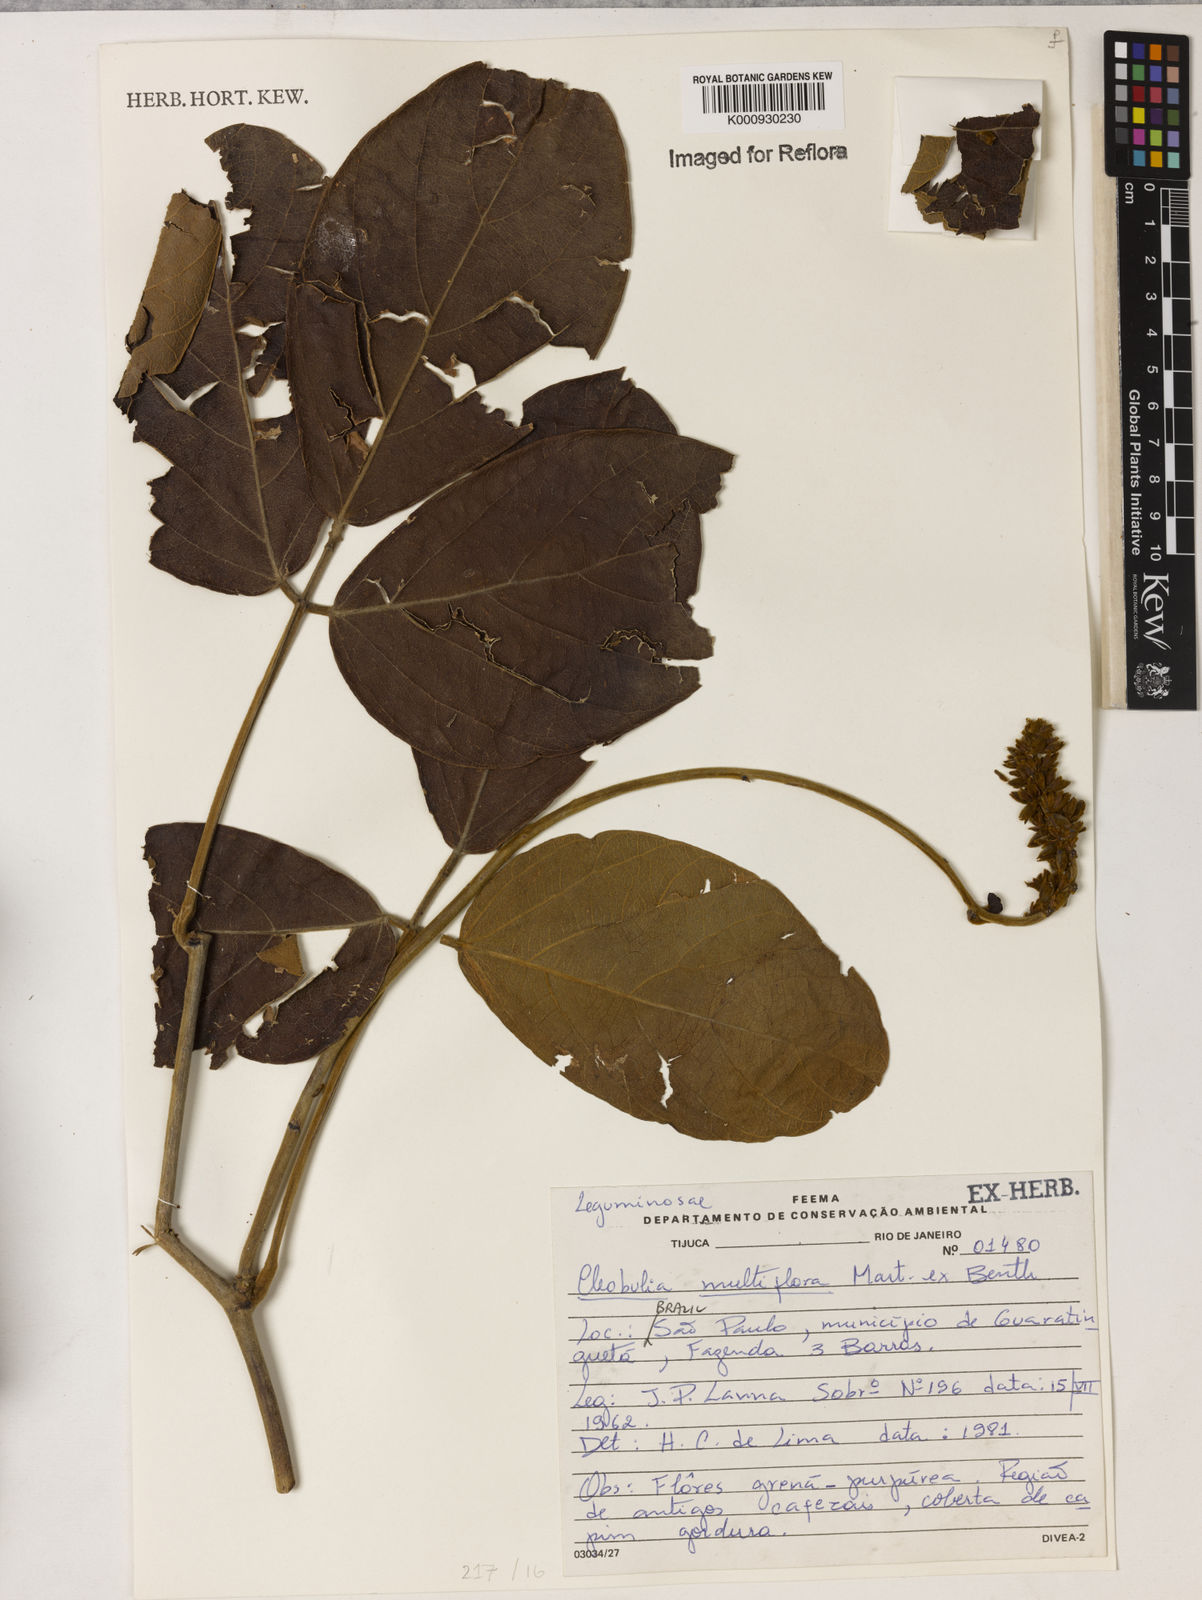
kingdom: Plantae
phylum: Tracheophyta
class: Magnoliopsida
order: Fabales
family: Fabaceae
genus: Cleobulia
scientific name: Cleobulia coccinea
